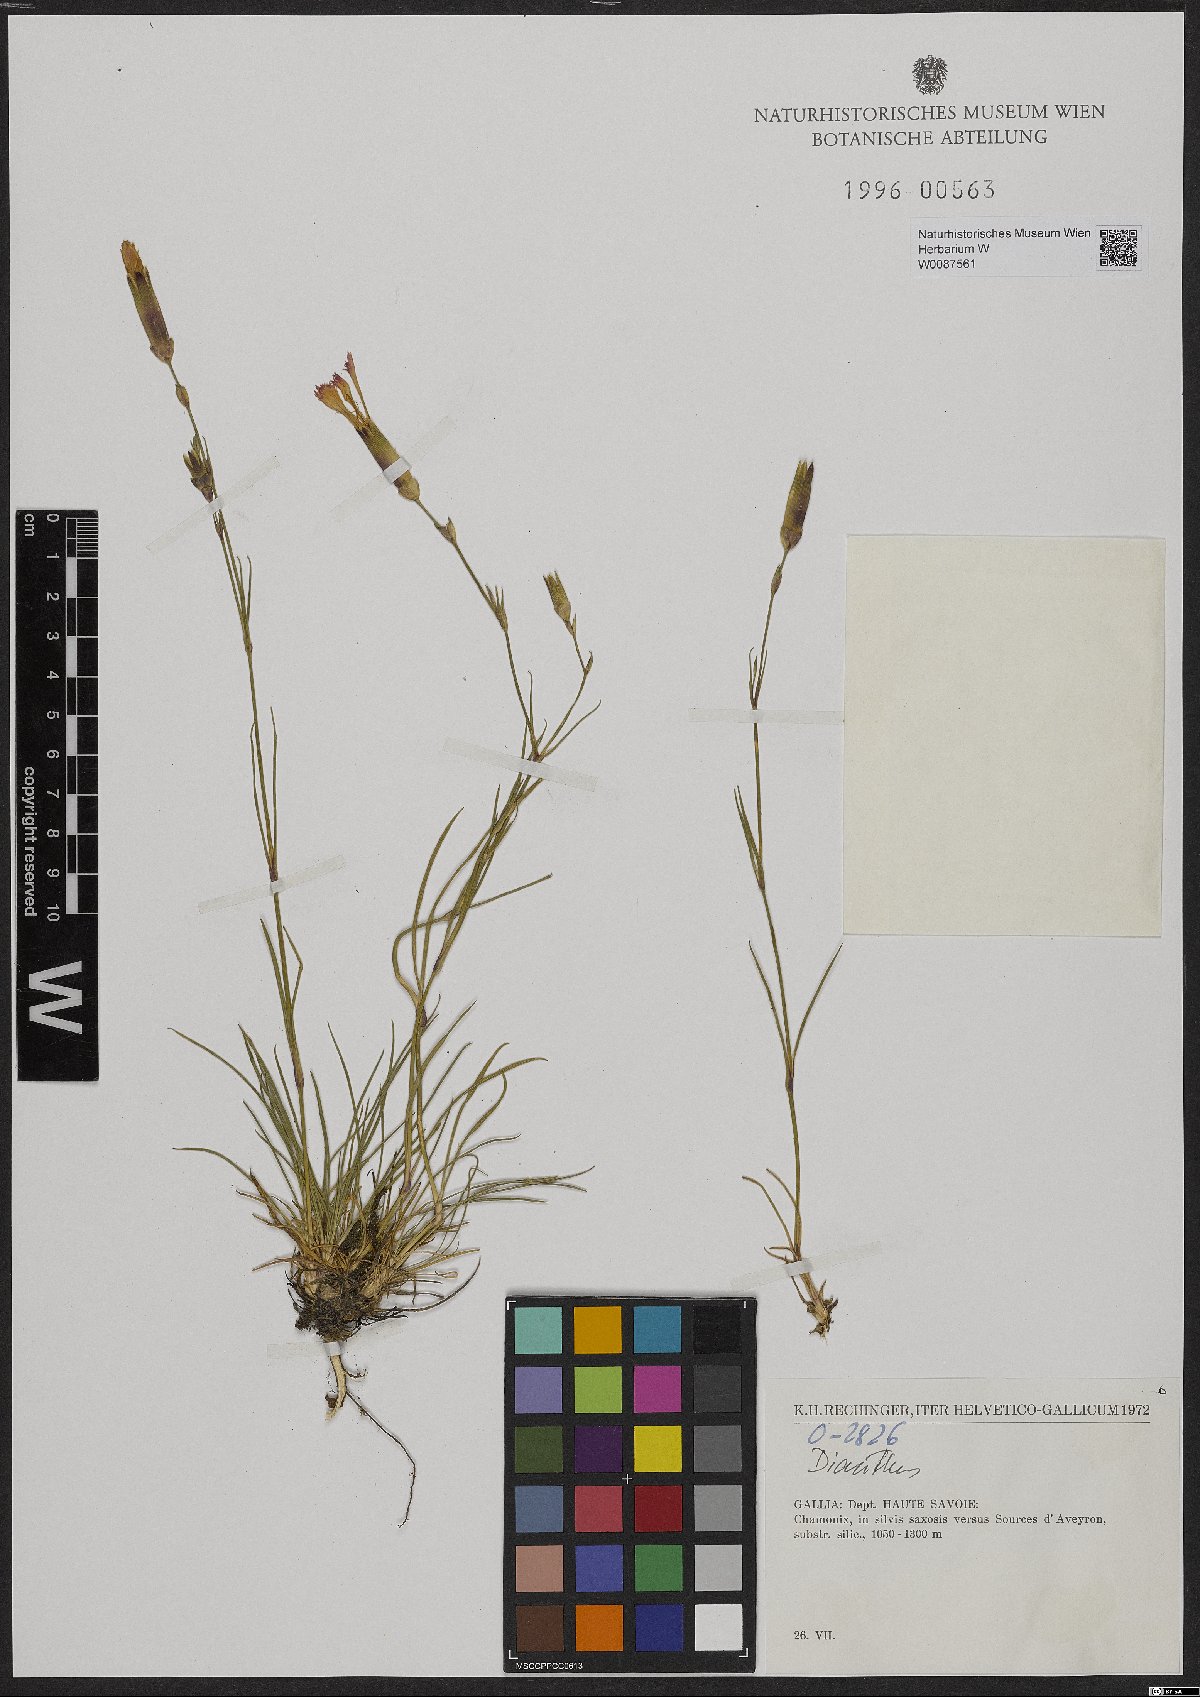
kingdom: Plantae
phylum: Tracheophyta
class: Magnoliopsida
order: Caryophyllales
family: Polygonaceae
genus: Rumex
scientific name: Rumex arifolius
